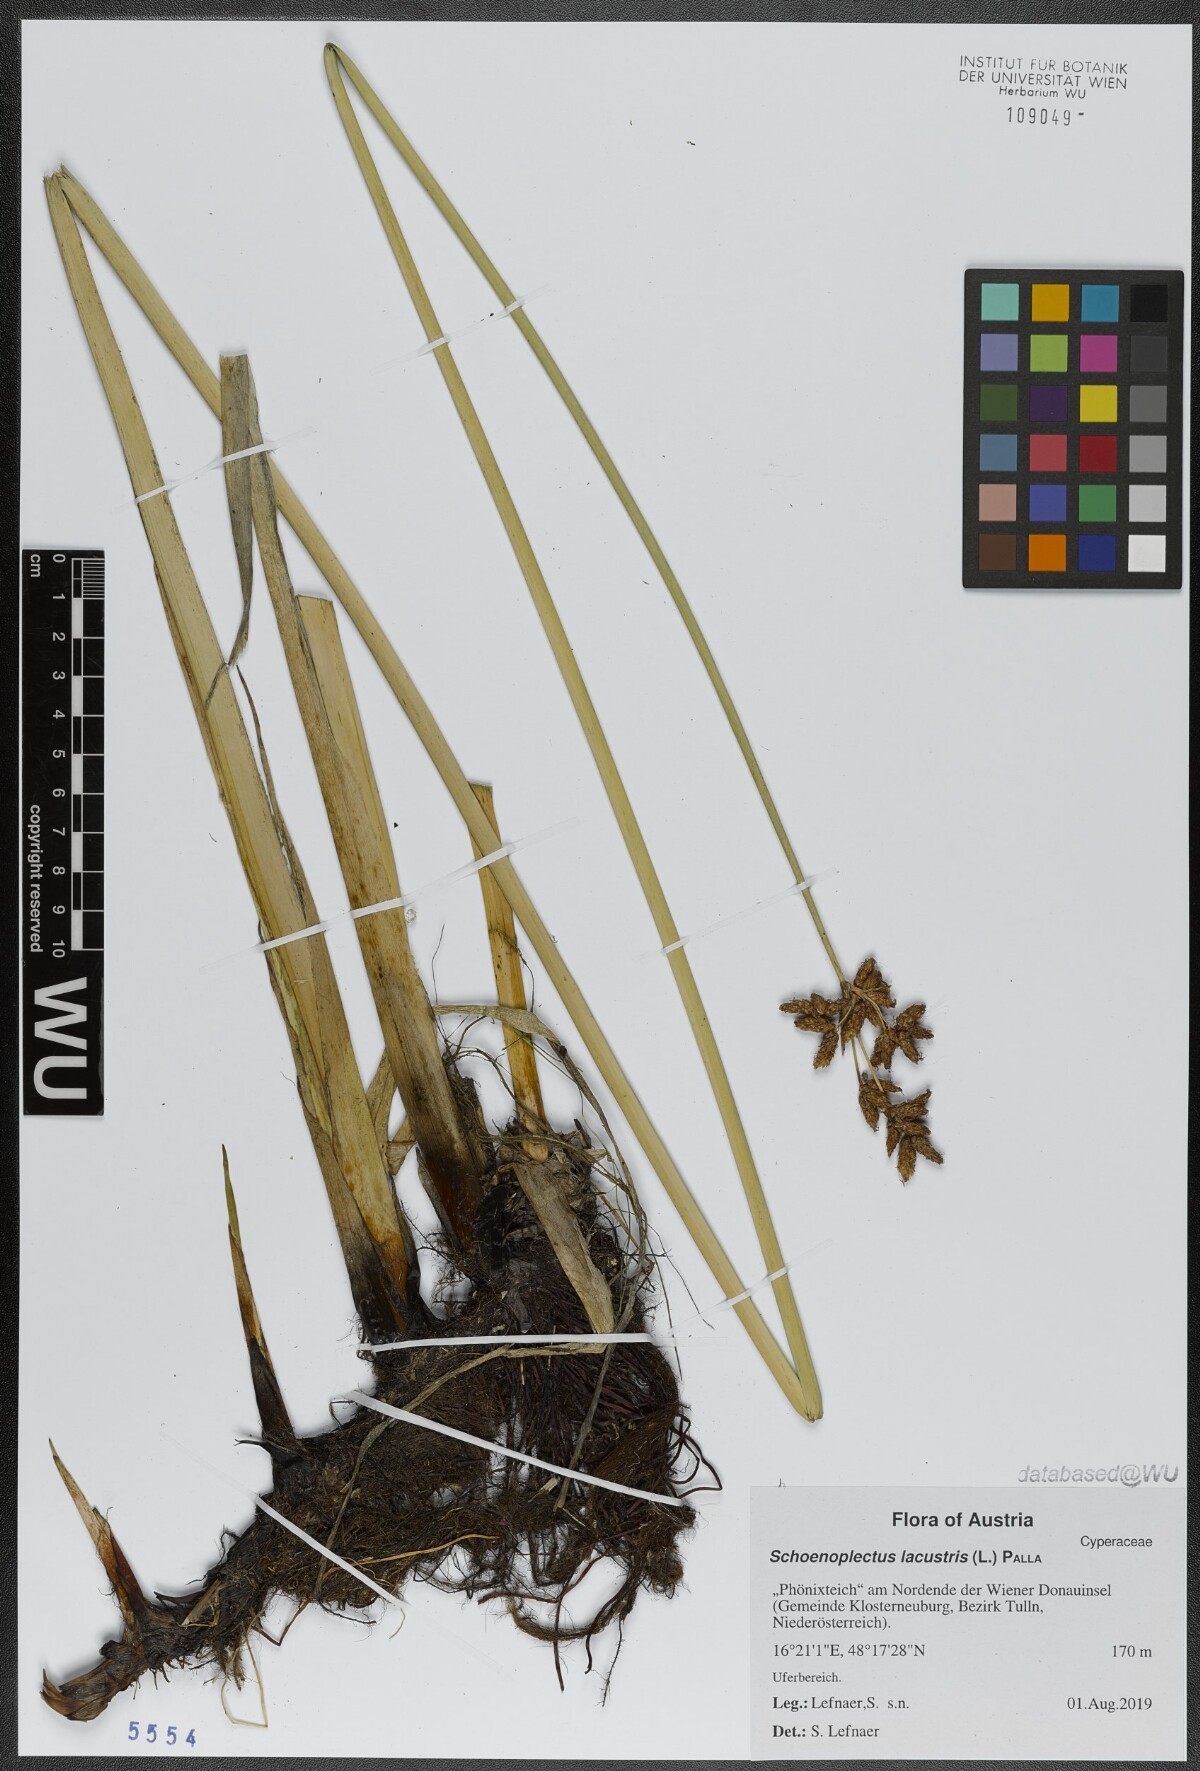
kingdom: Plantae
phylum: Tracheophyta
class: Liliopsida
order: Poales
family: Cyperaceae
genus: Schoenoplectus
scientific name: Schoenoplectus lacustris
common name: Common club-rush
